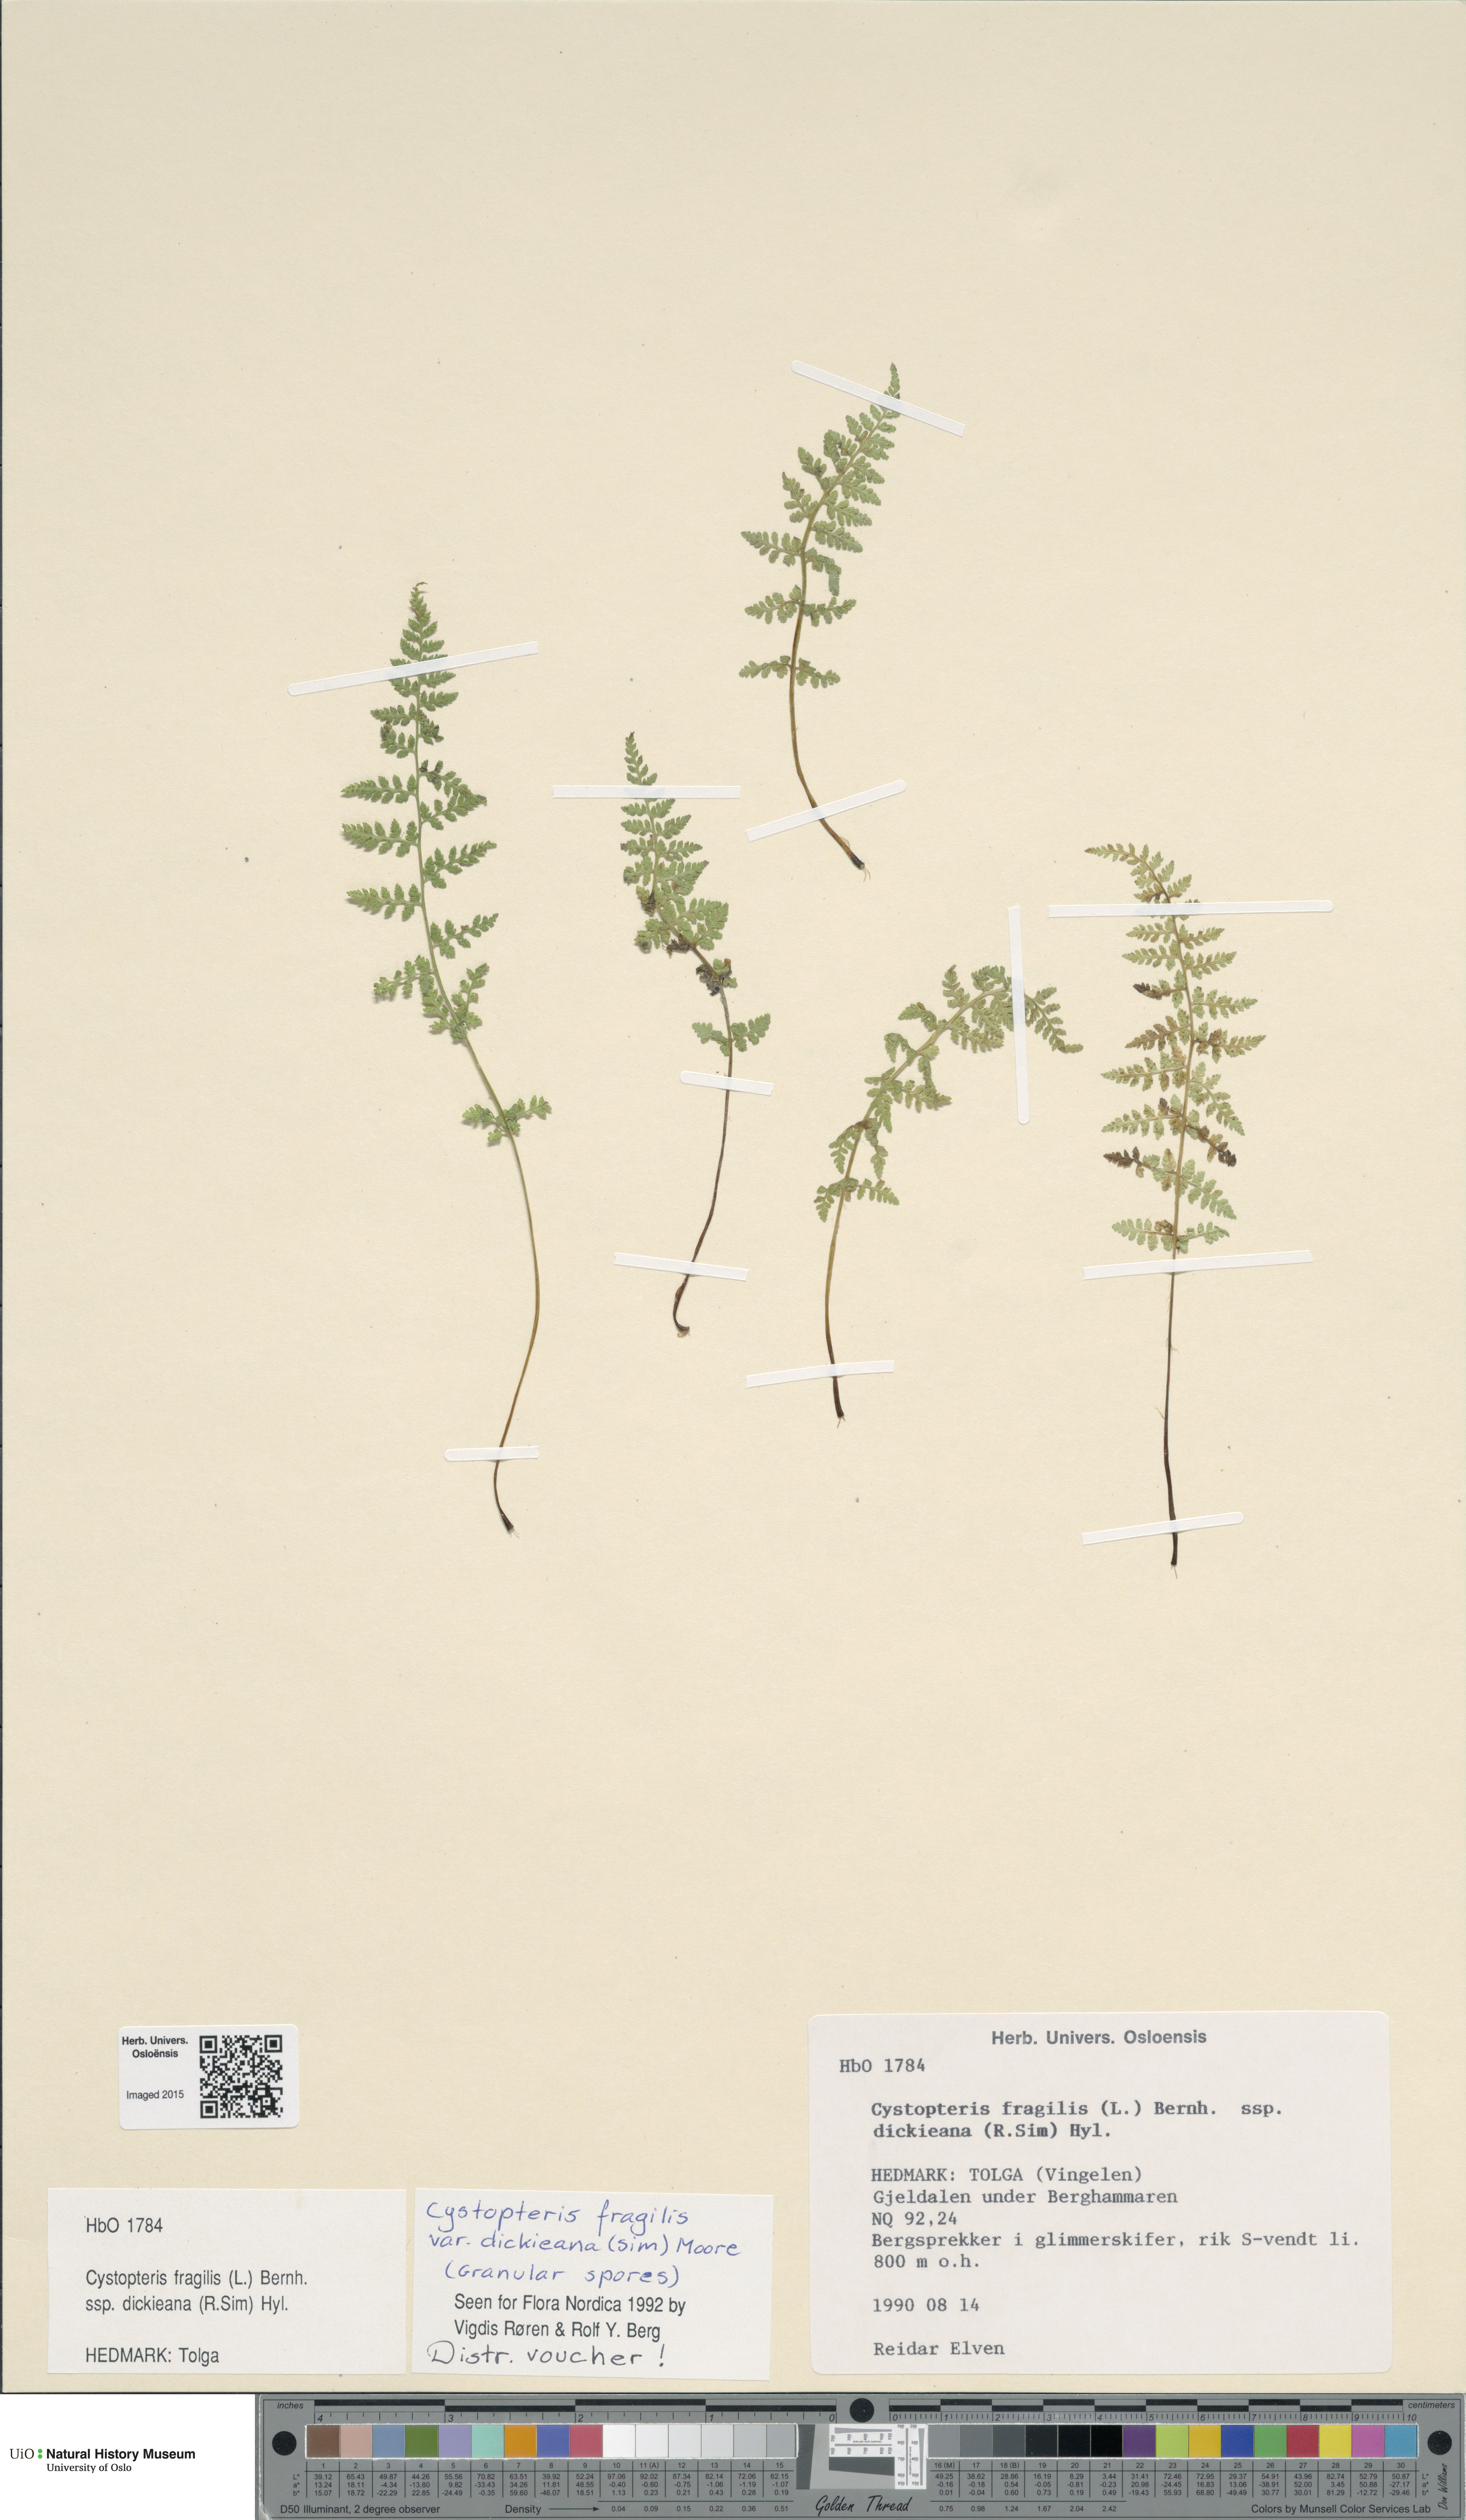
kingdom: Plantae
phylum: Tracheophyta
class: Polypodiopsida
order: Polypodiales
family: Cystopteridaceae
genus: Cystopteris
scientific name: Cystopteris dickieana
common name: Dickie's bladder-fern
